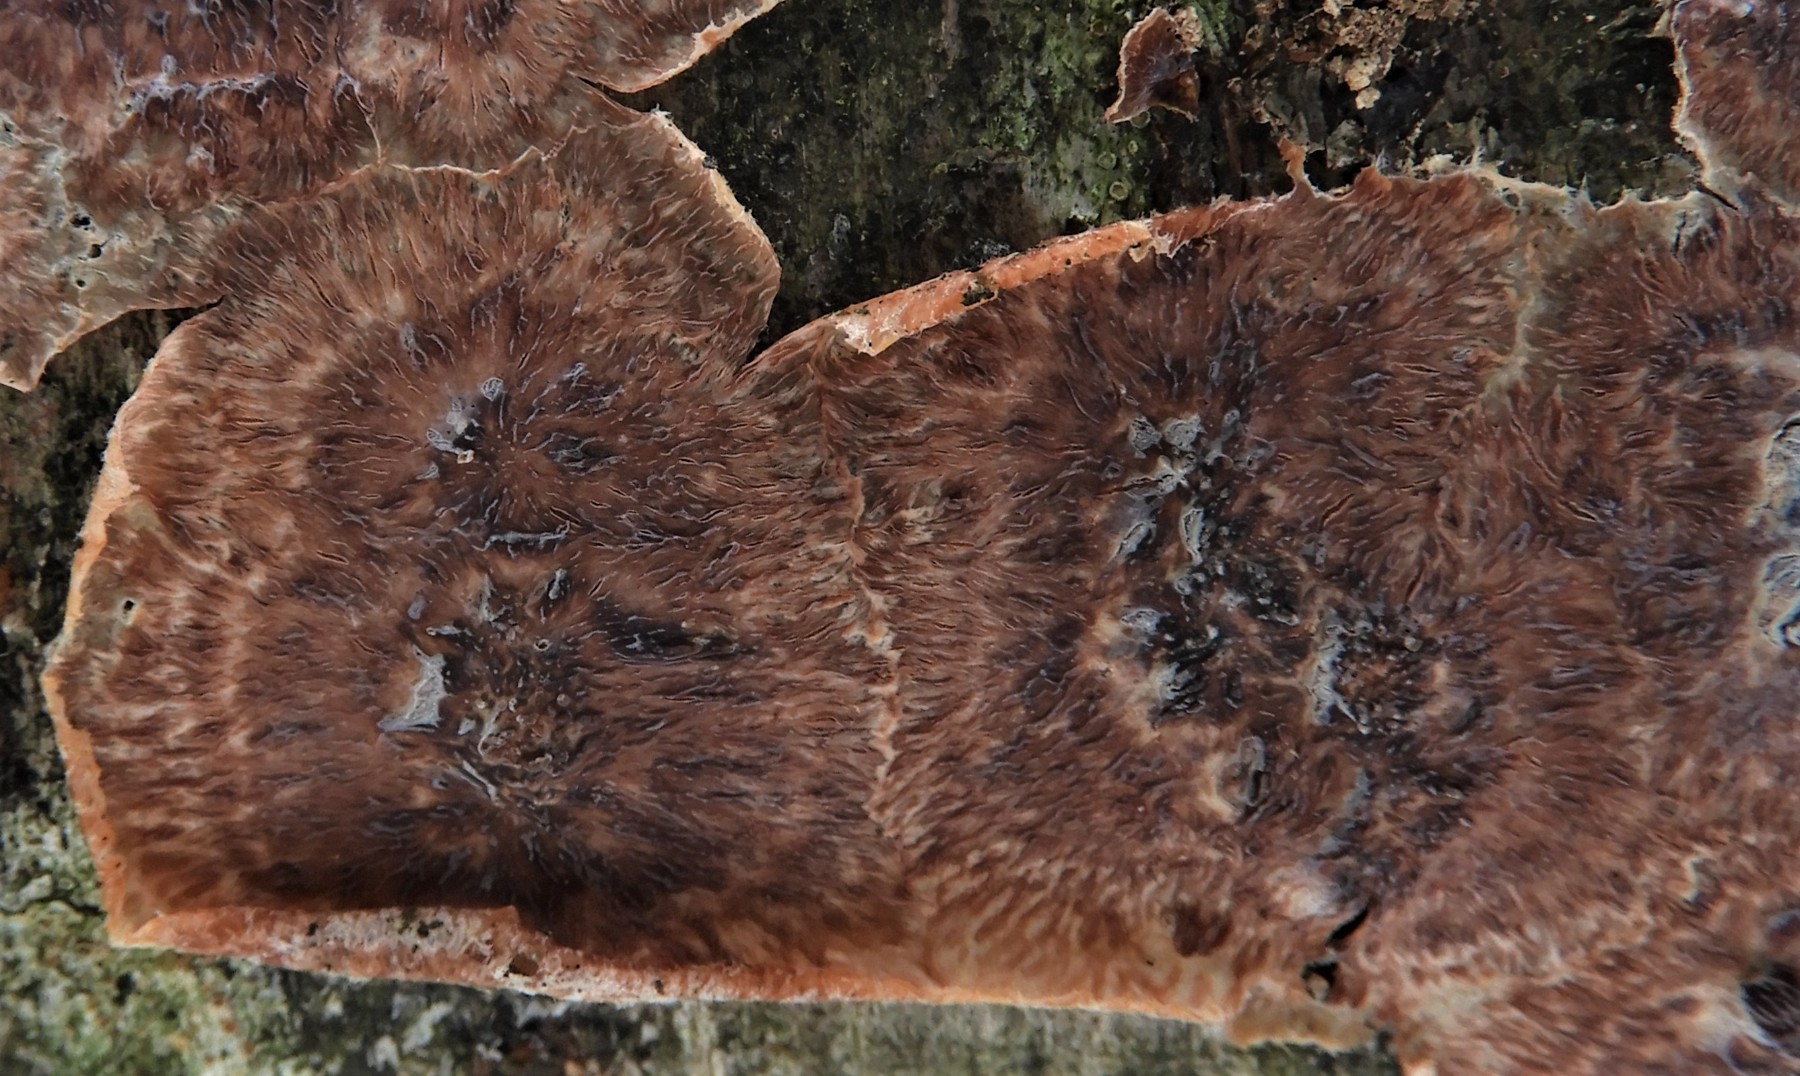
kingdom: Fungi
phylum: Basidiomycota
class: Agaricomycetes
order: Polyporales
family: Meruliaceae
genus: Phlebia
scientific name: Phlebia radiata
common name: stråle-åresvamp
